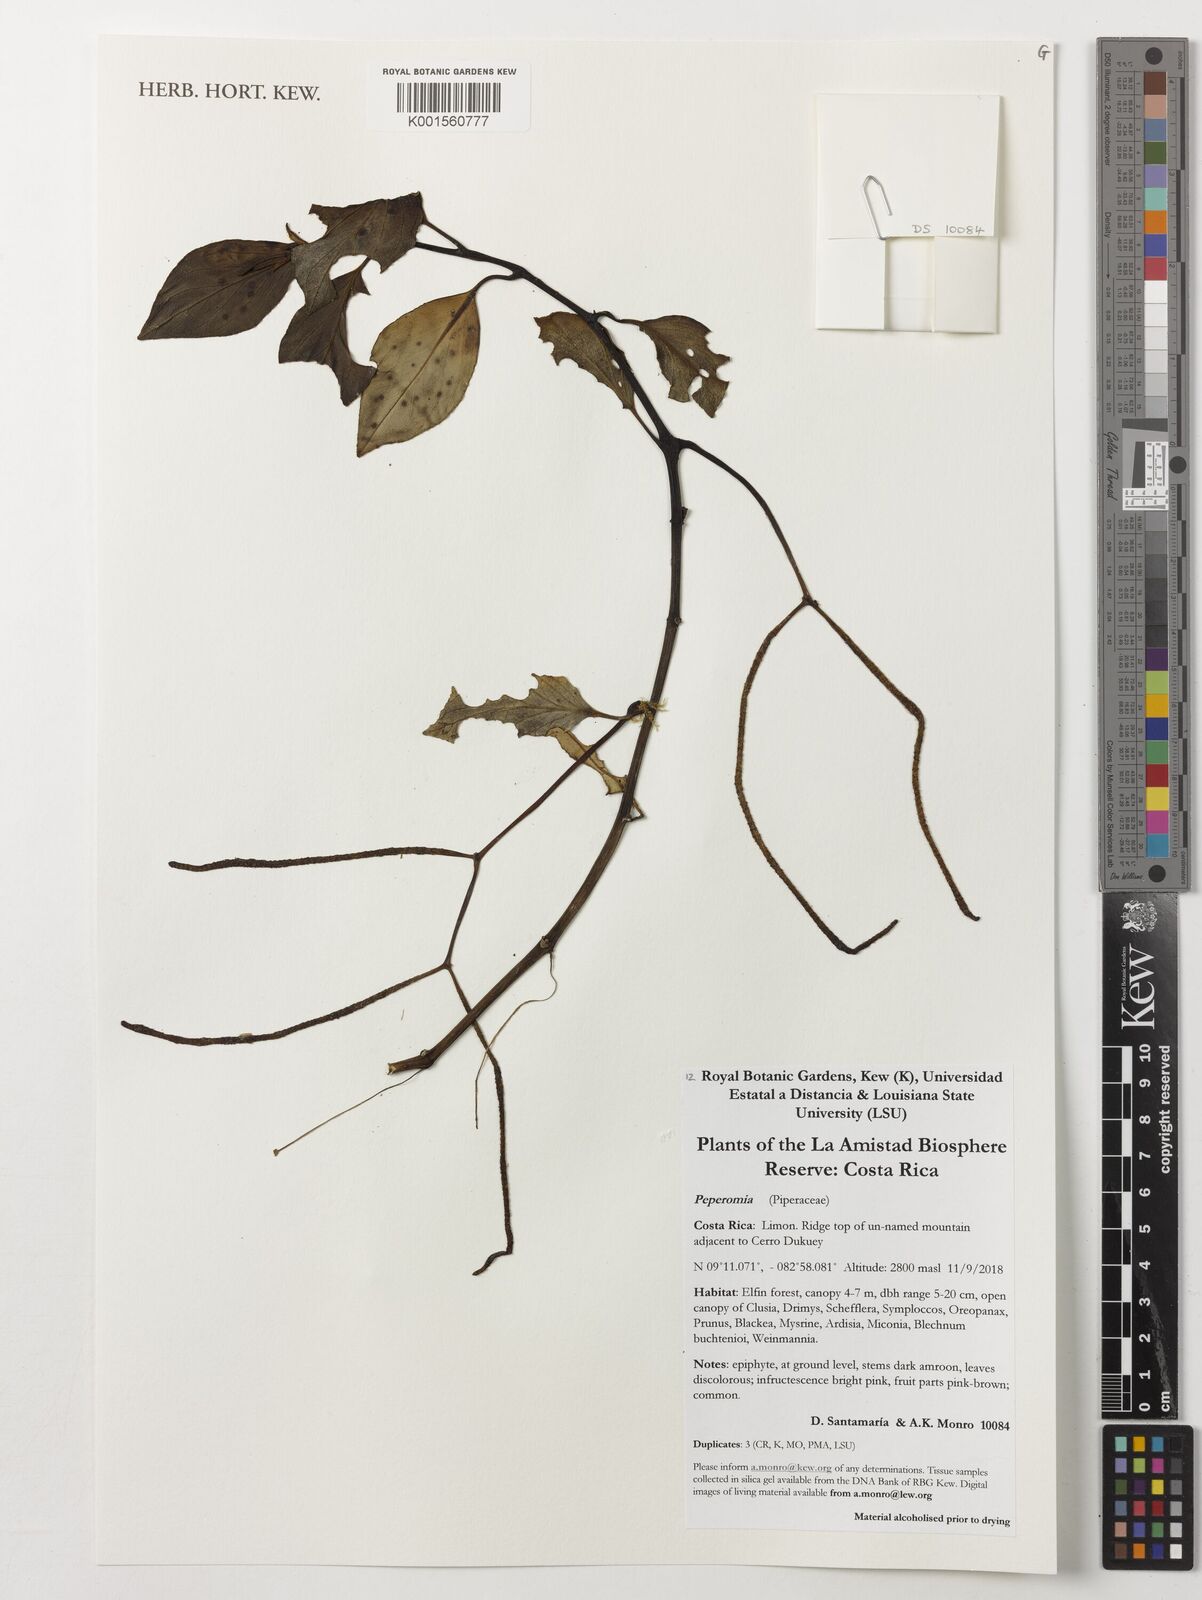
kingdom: Plantae
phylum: Tracheophyta
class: Magnoliopsida
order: Piperales
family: Piperaceae
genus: Peperomia
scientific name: Peperomia
